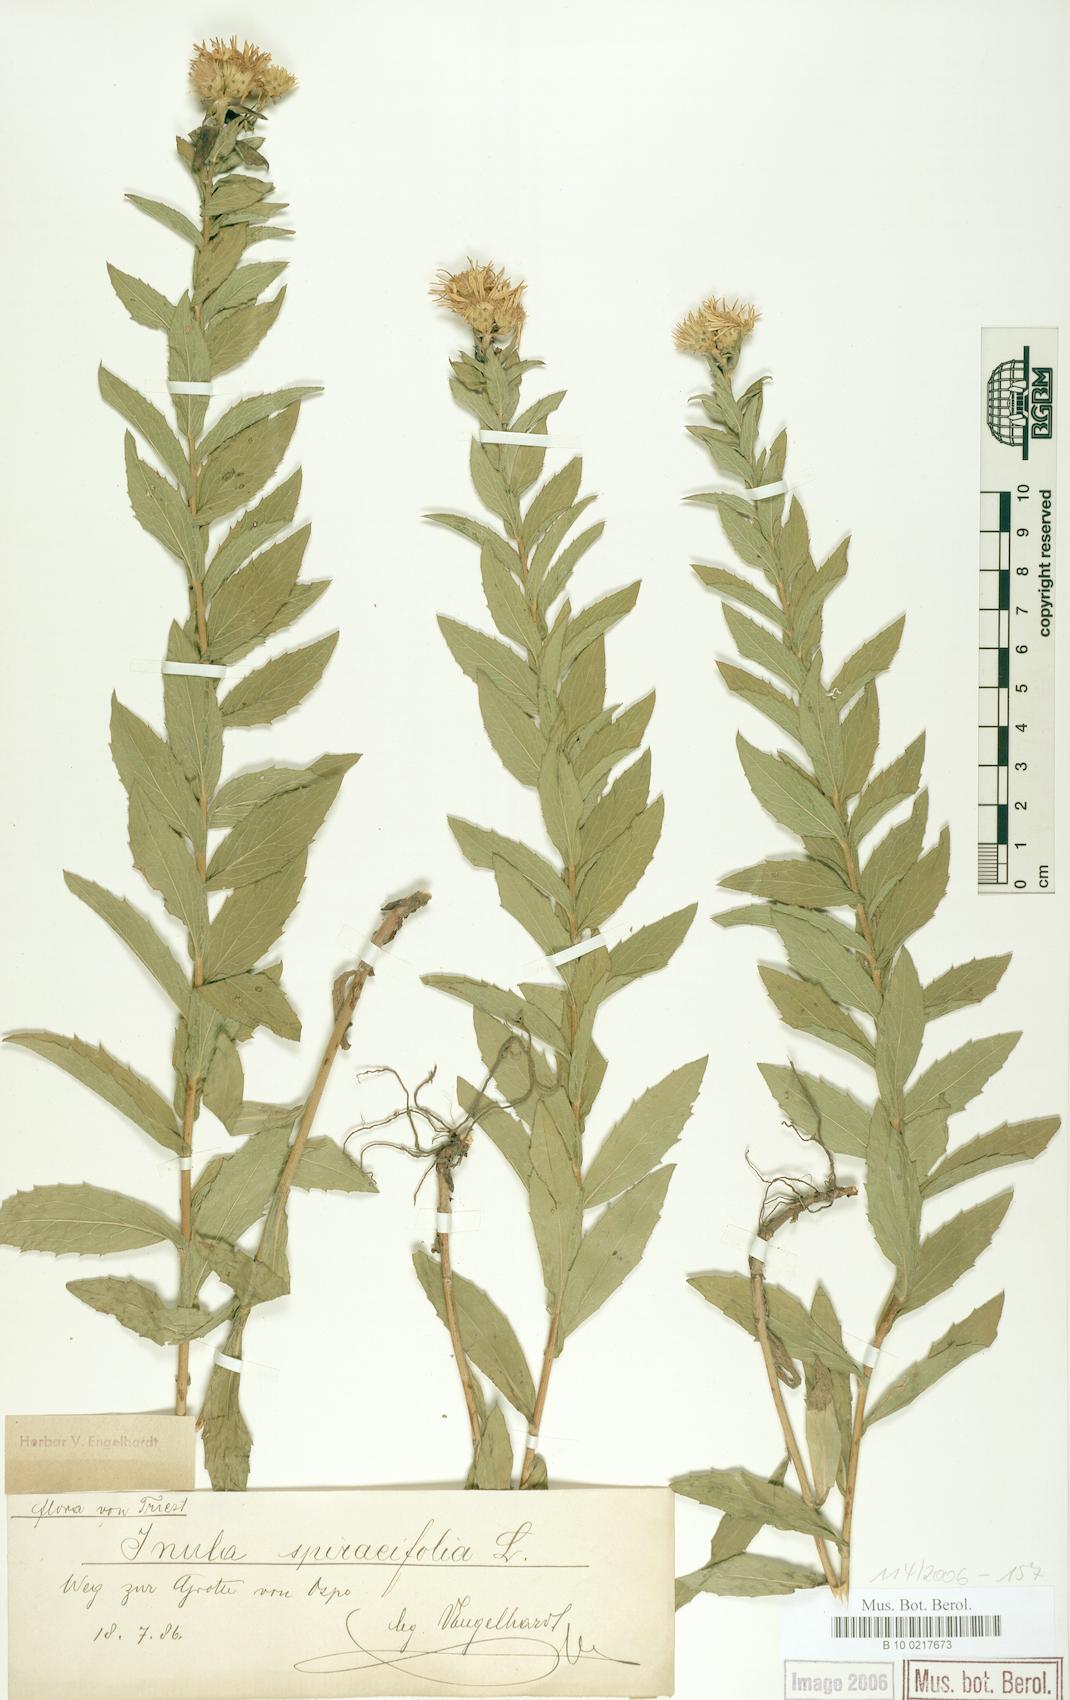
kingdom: Plantae
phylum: Tracheophyta
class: Magnoliopsida
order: Asterales
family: Asteraceae
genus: Pentanema
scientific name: Pentanema spiraeifolium
